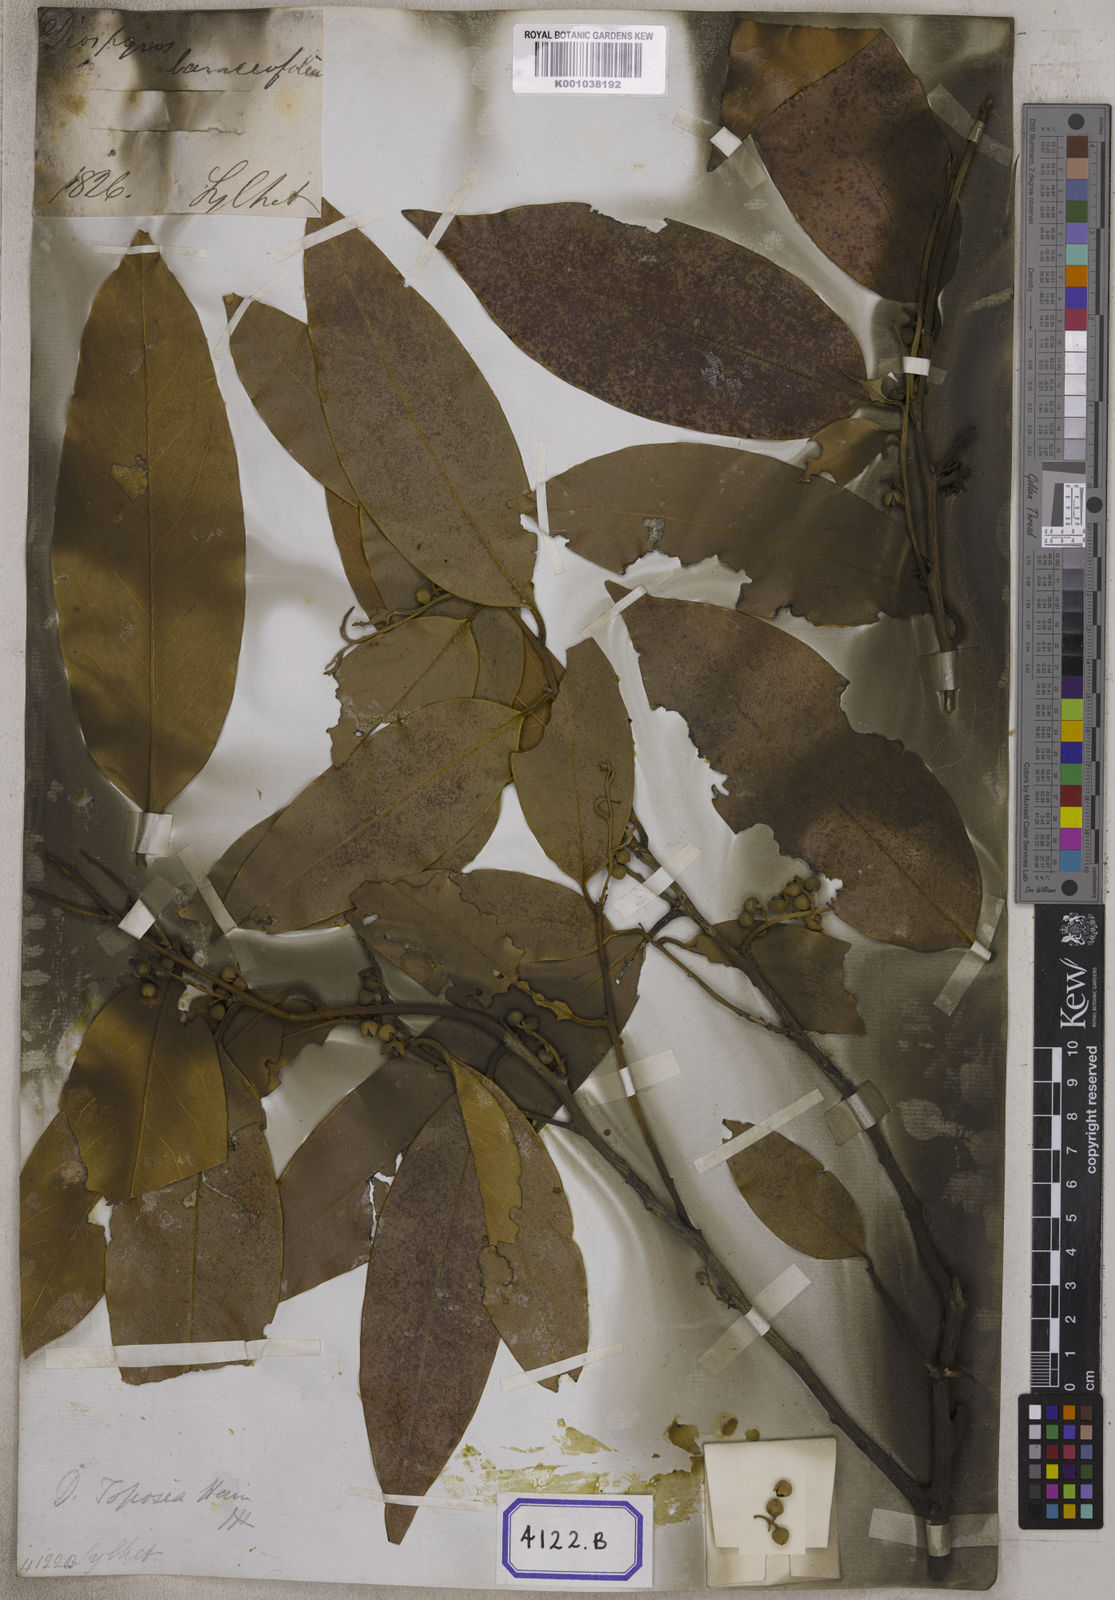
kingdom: Plantae
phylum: Tracheophyta
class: Magnoliopsida
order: Ericales
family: Ebenaceae
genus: Diospyros
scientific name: Diospyros
